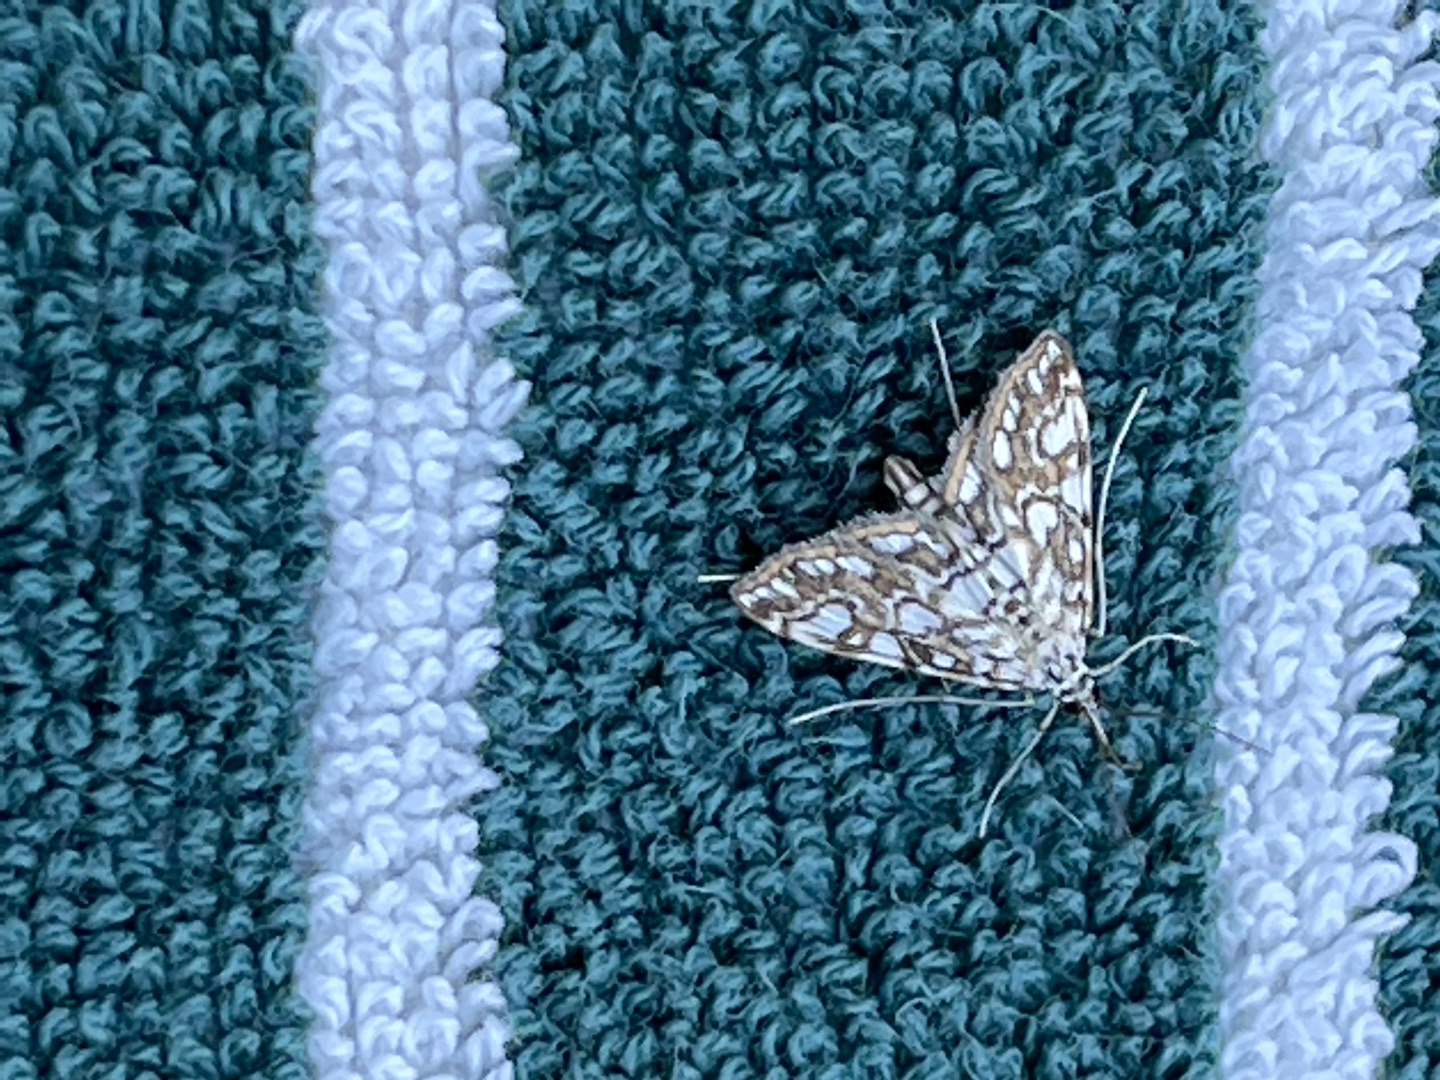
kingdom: Animalia
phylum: Arthropoda
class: Insecta
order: Lepidoptera
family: Crambidae
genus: Elophila
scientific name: Elophila nymphaeata
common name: Åkandehalvmøl
